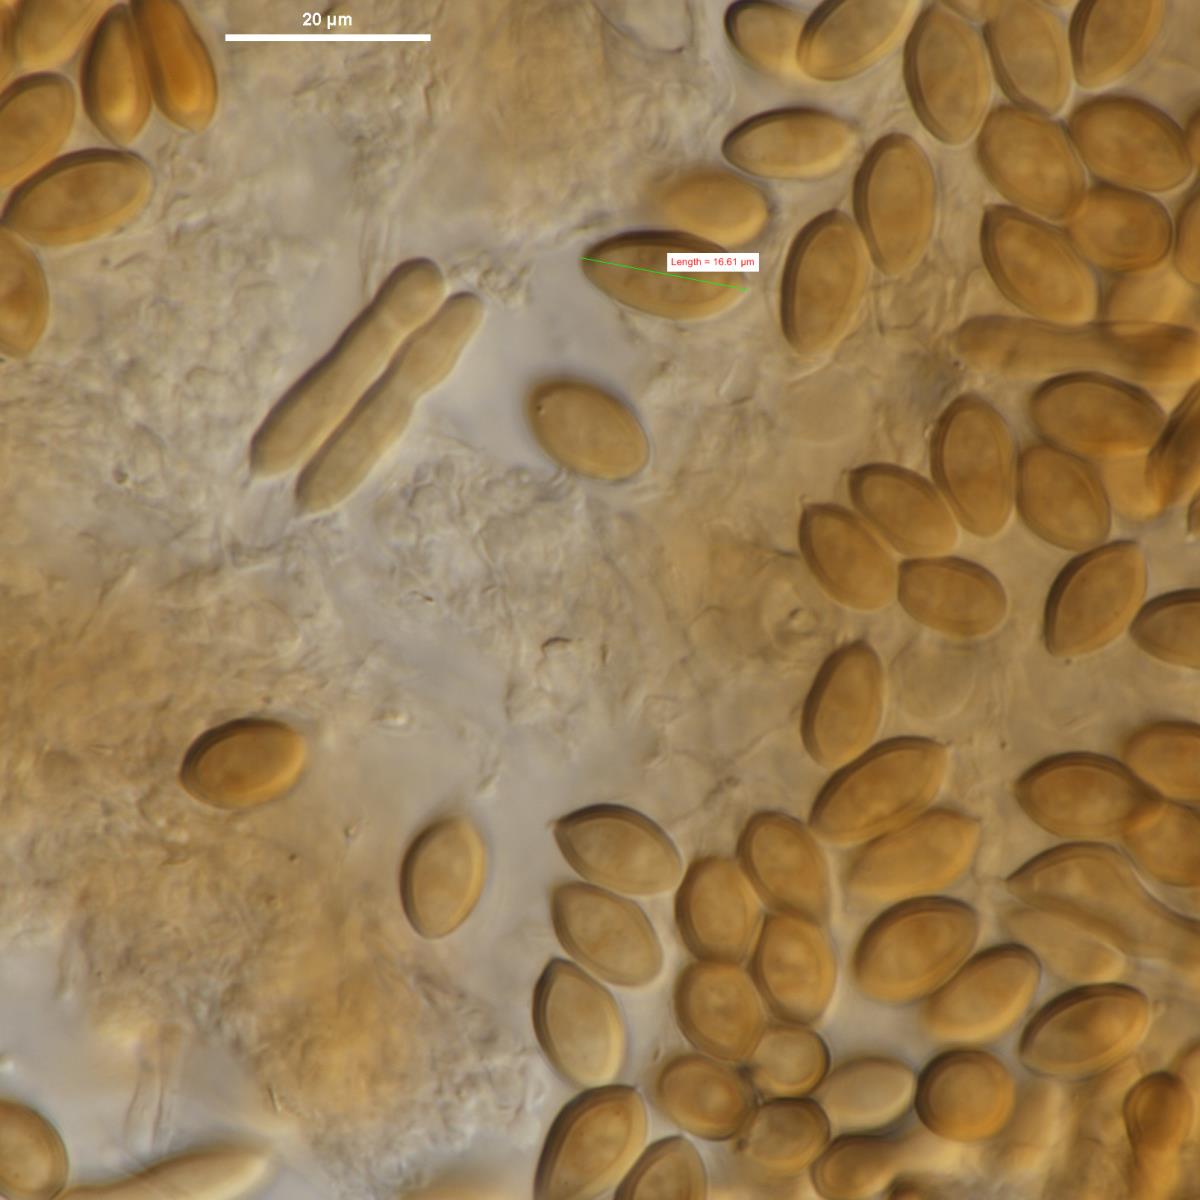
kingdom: Fungi
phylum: Basidiomycota
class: Agaricomycetes
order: Agaricales
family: Agaricaceae
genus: Secotium
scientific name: Secotium ochraceum
